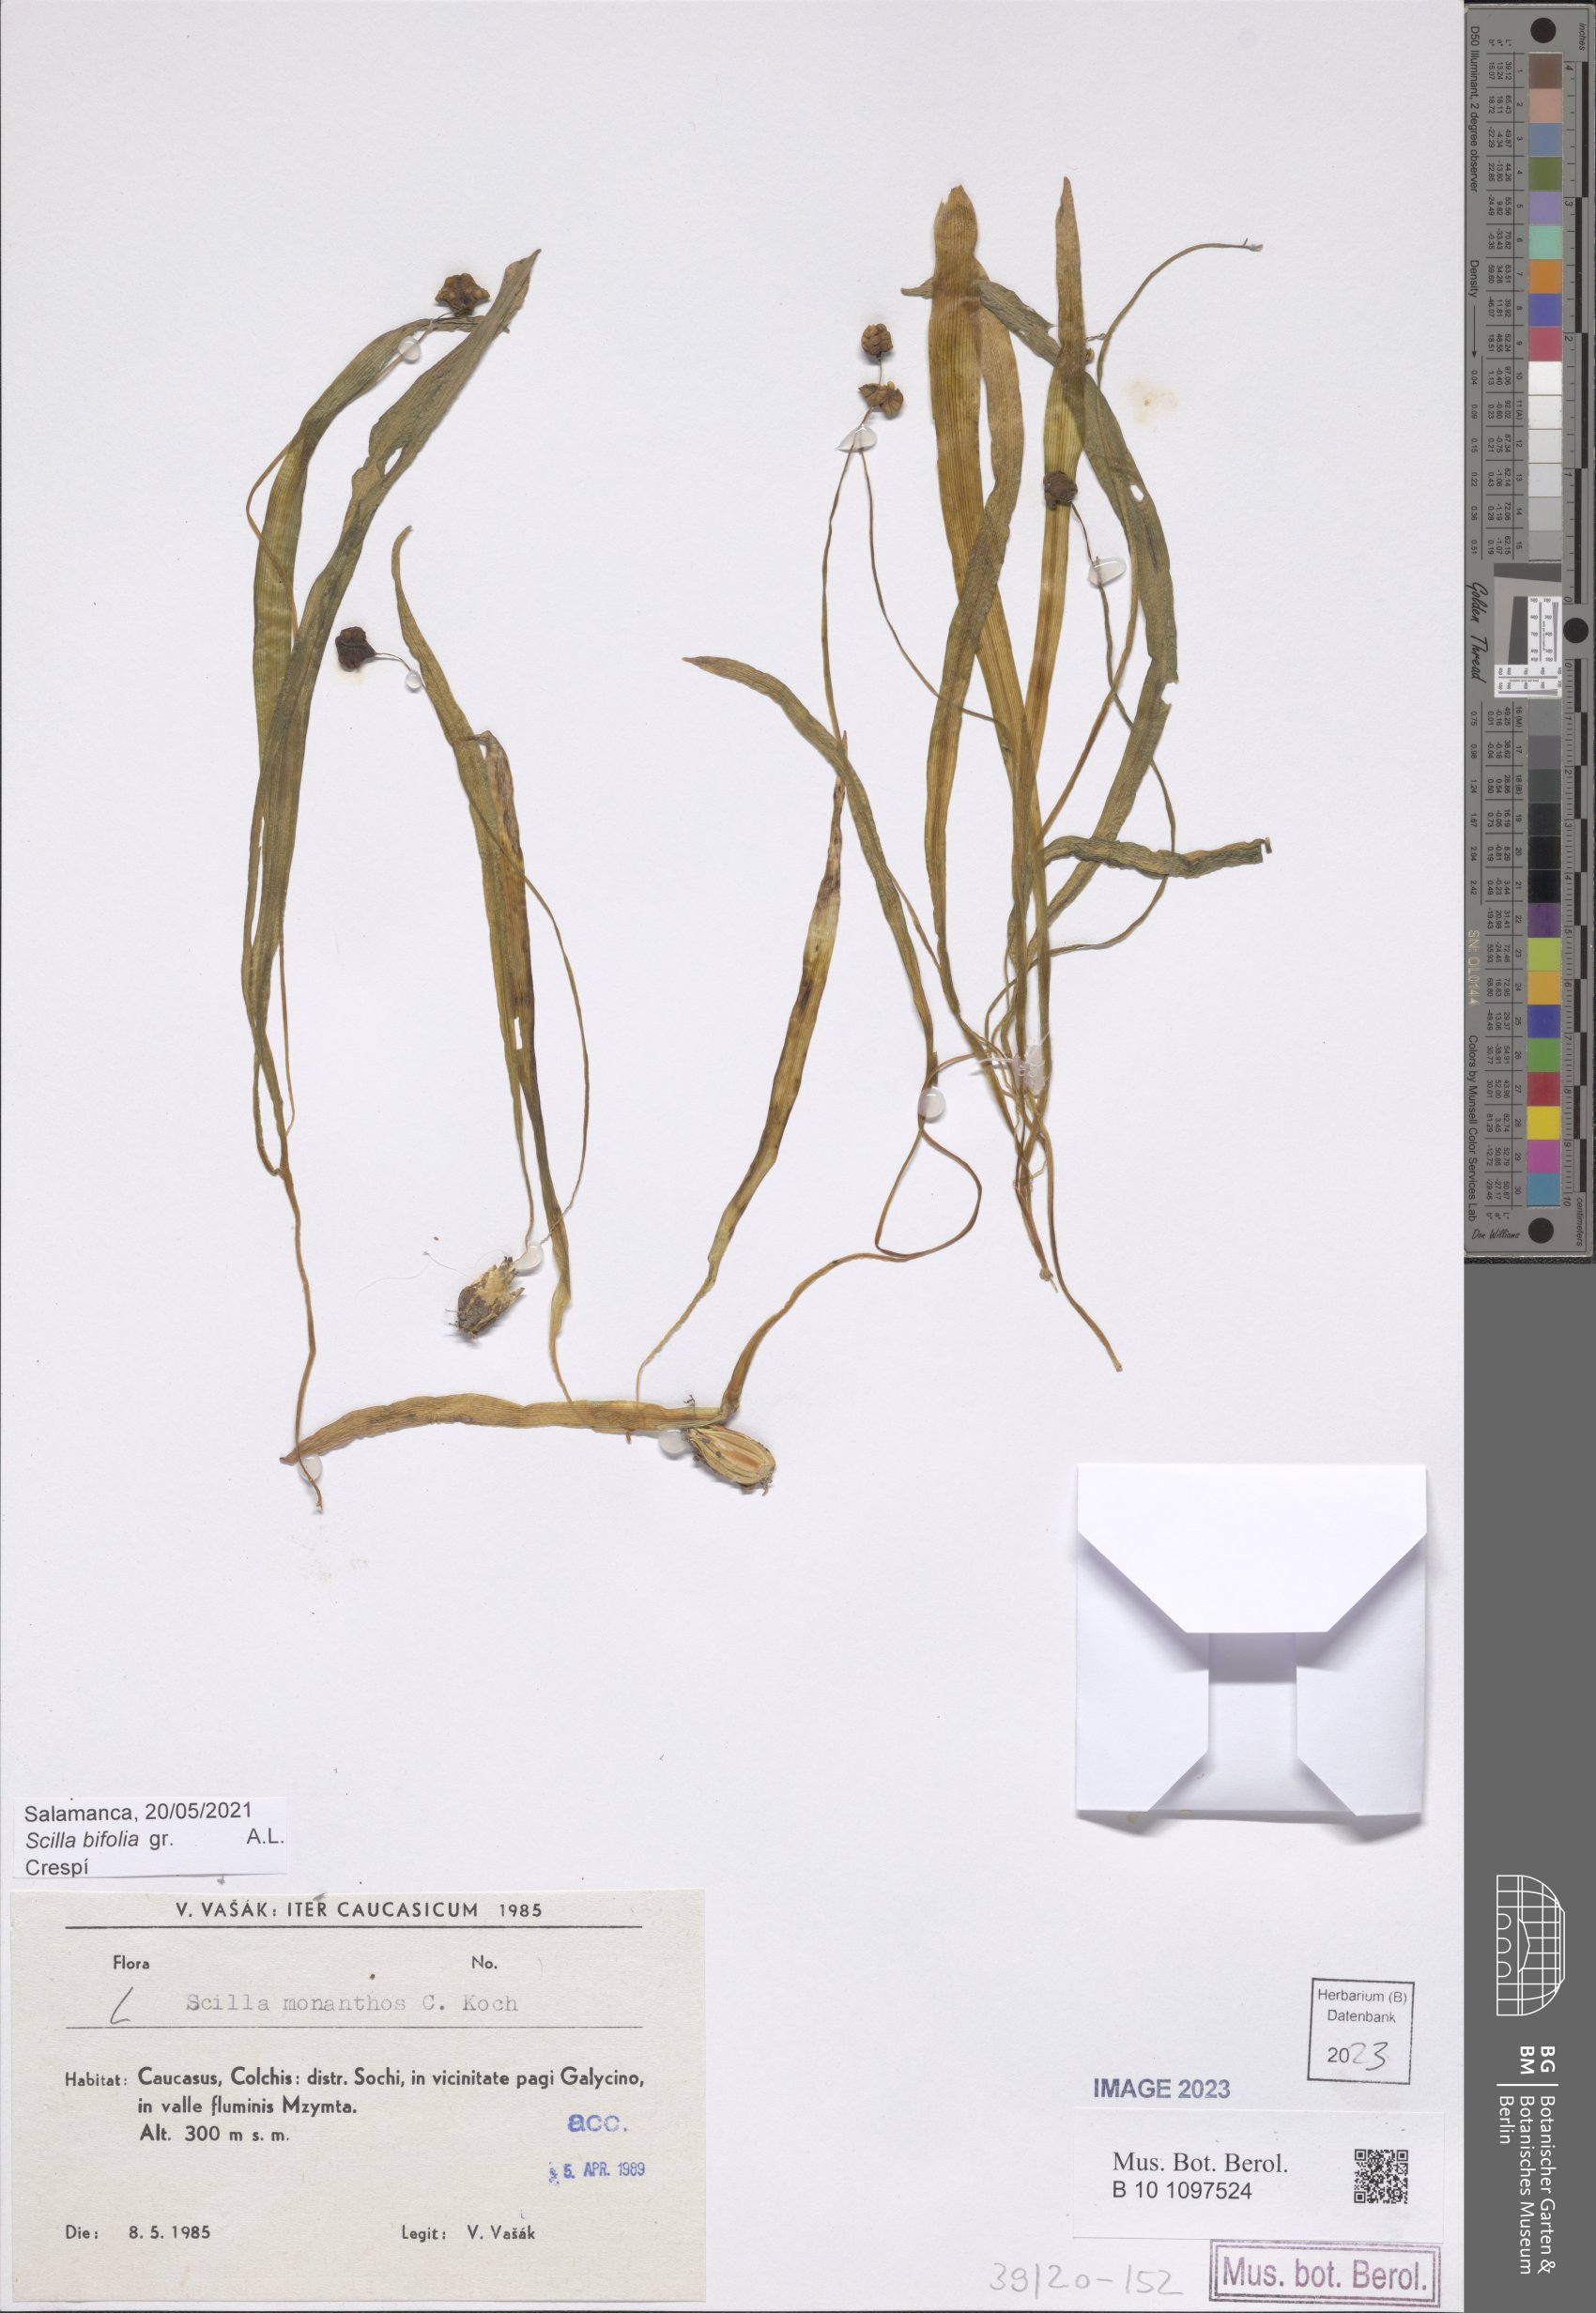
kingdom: Plantae
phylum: Tracheophyta
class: Liliopsida
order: Asparagales
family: Asparagaceae
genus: Scilla
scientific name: Scilla monanthos
